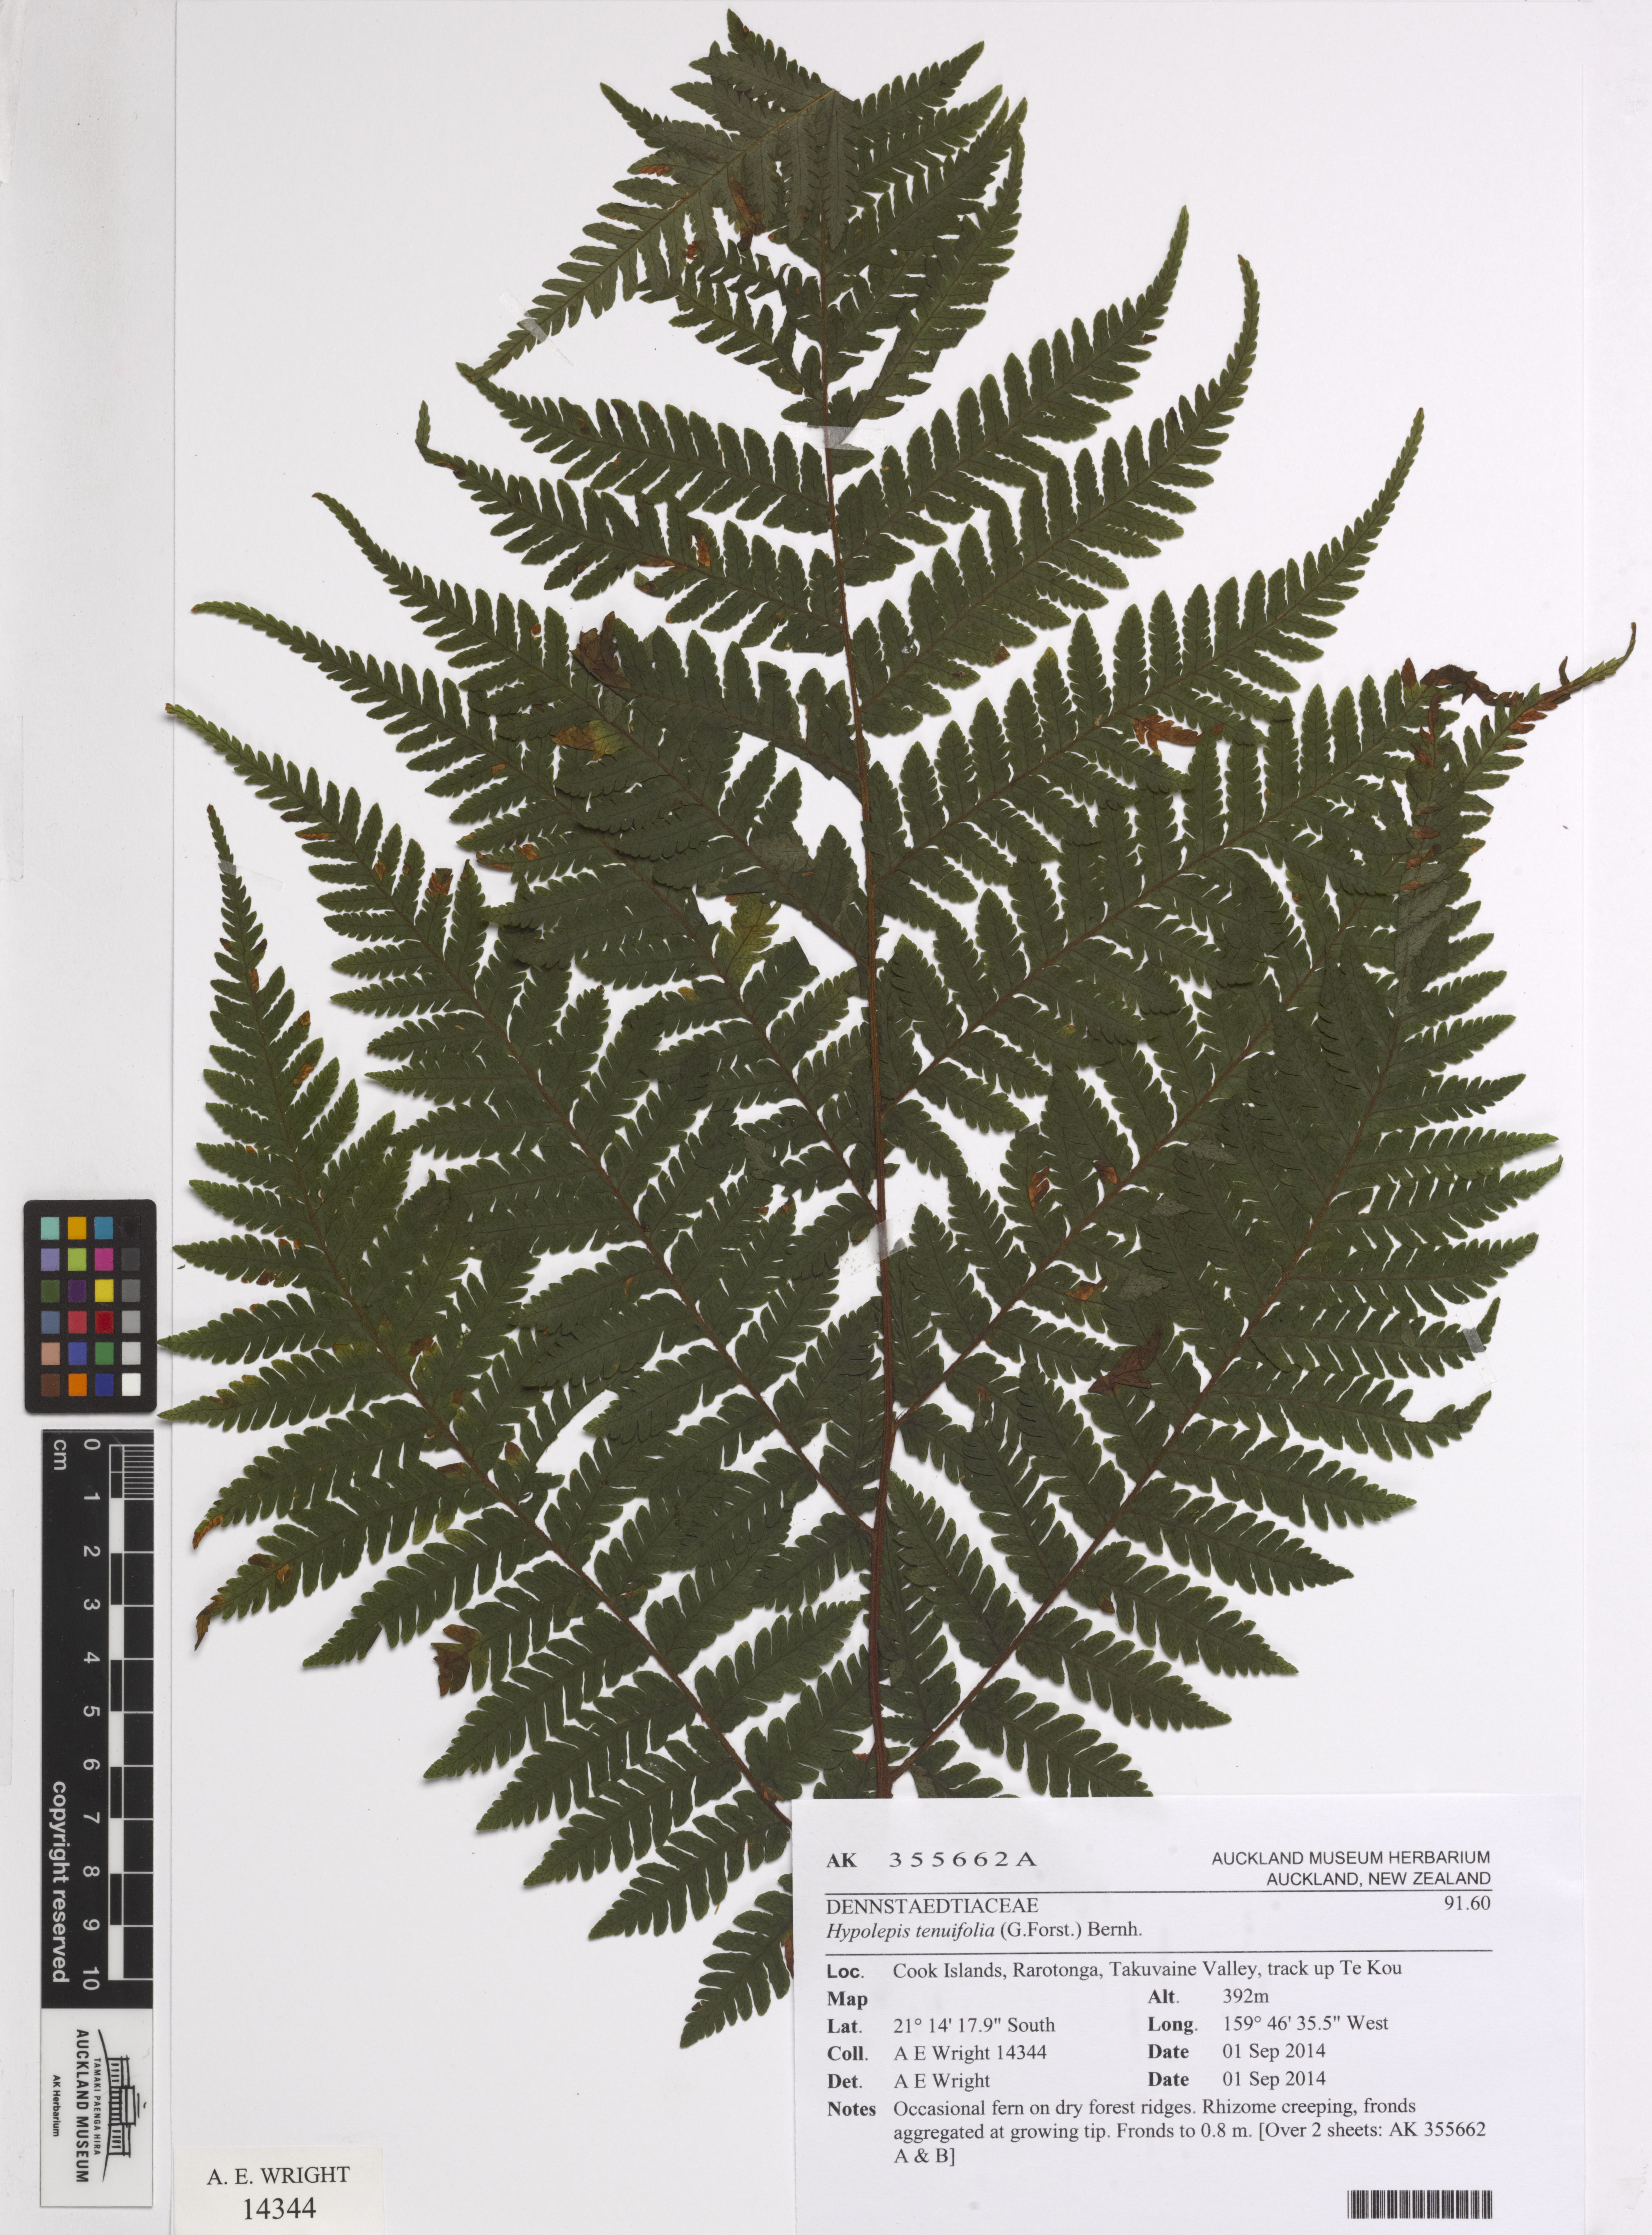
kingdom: Plantae
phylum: Tracheophyta
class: Polypodiopsida
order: Polypodiales
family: Dennstaedtiaceae
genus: Hypolepis
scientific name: Hypolepis tenuifolia
